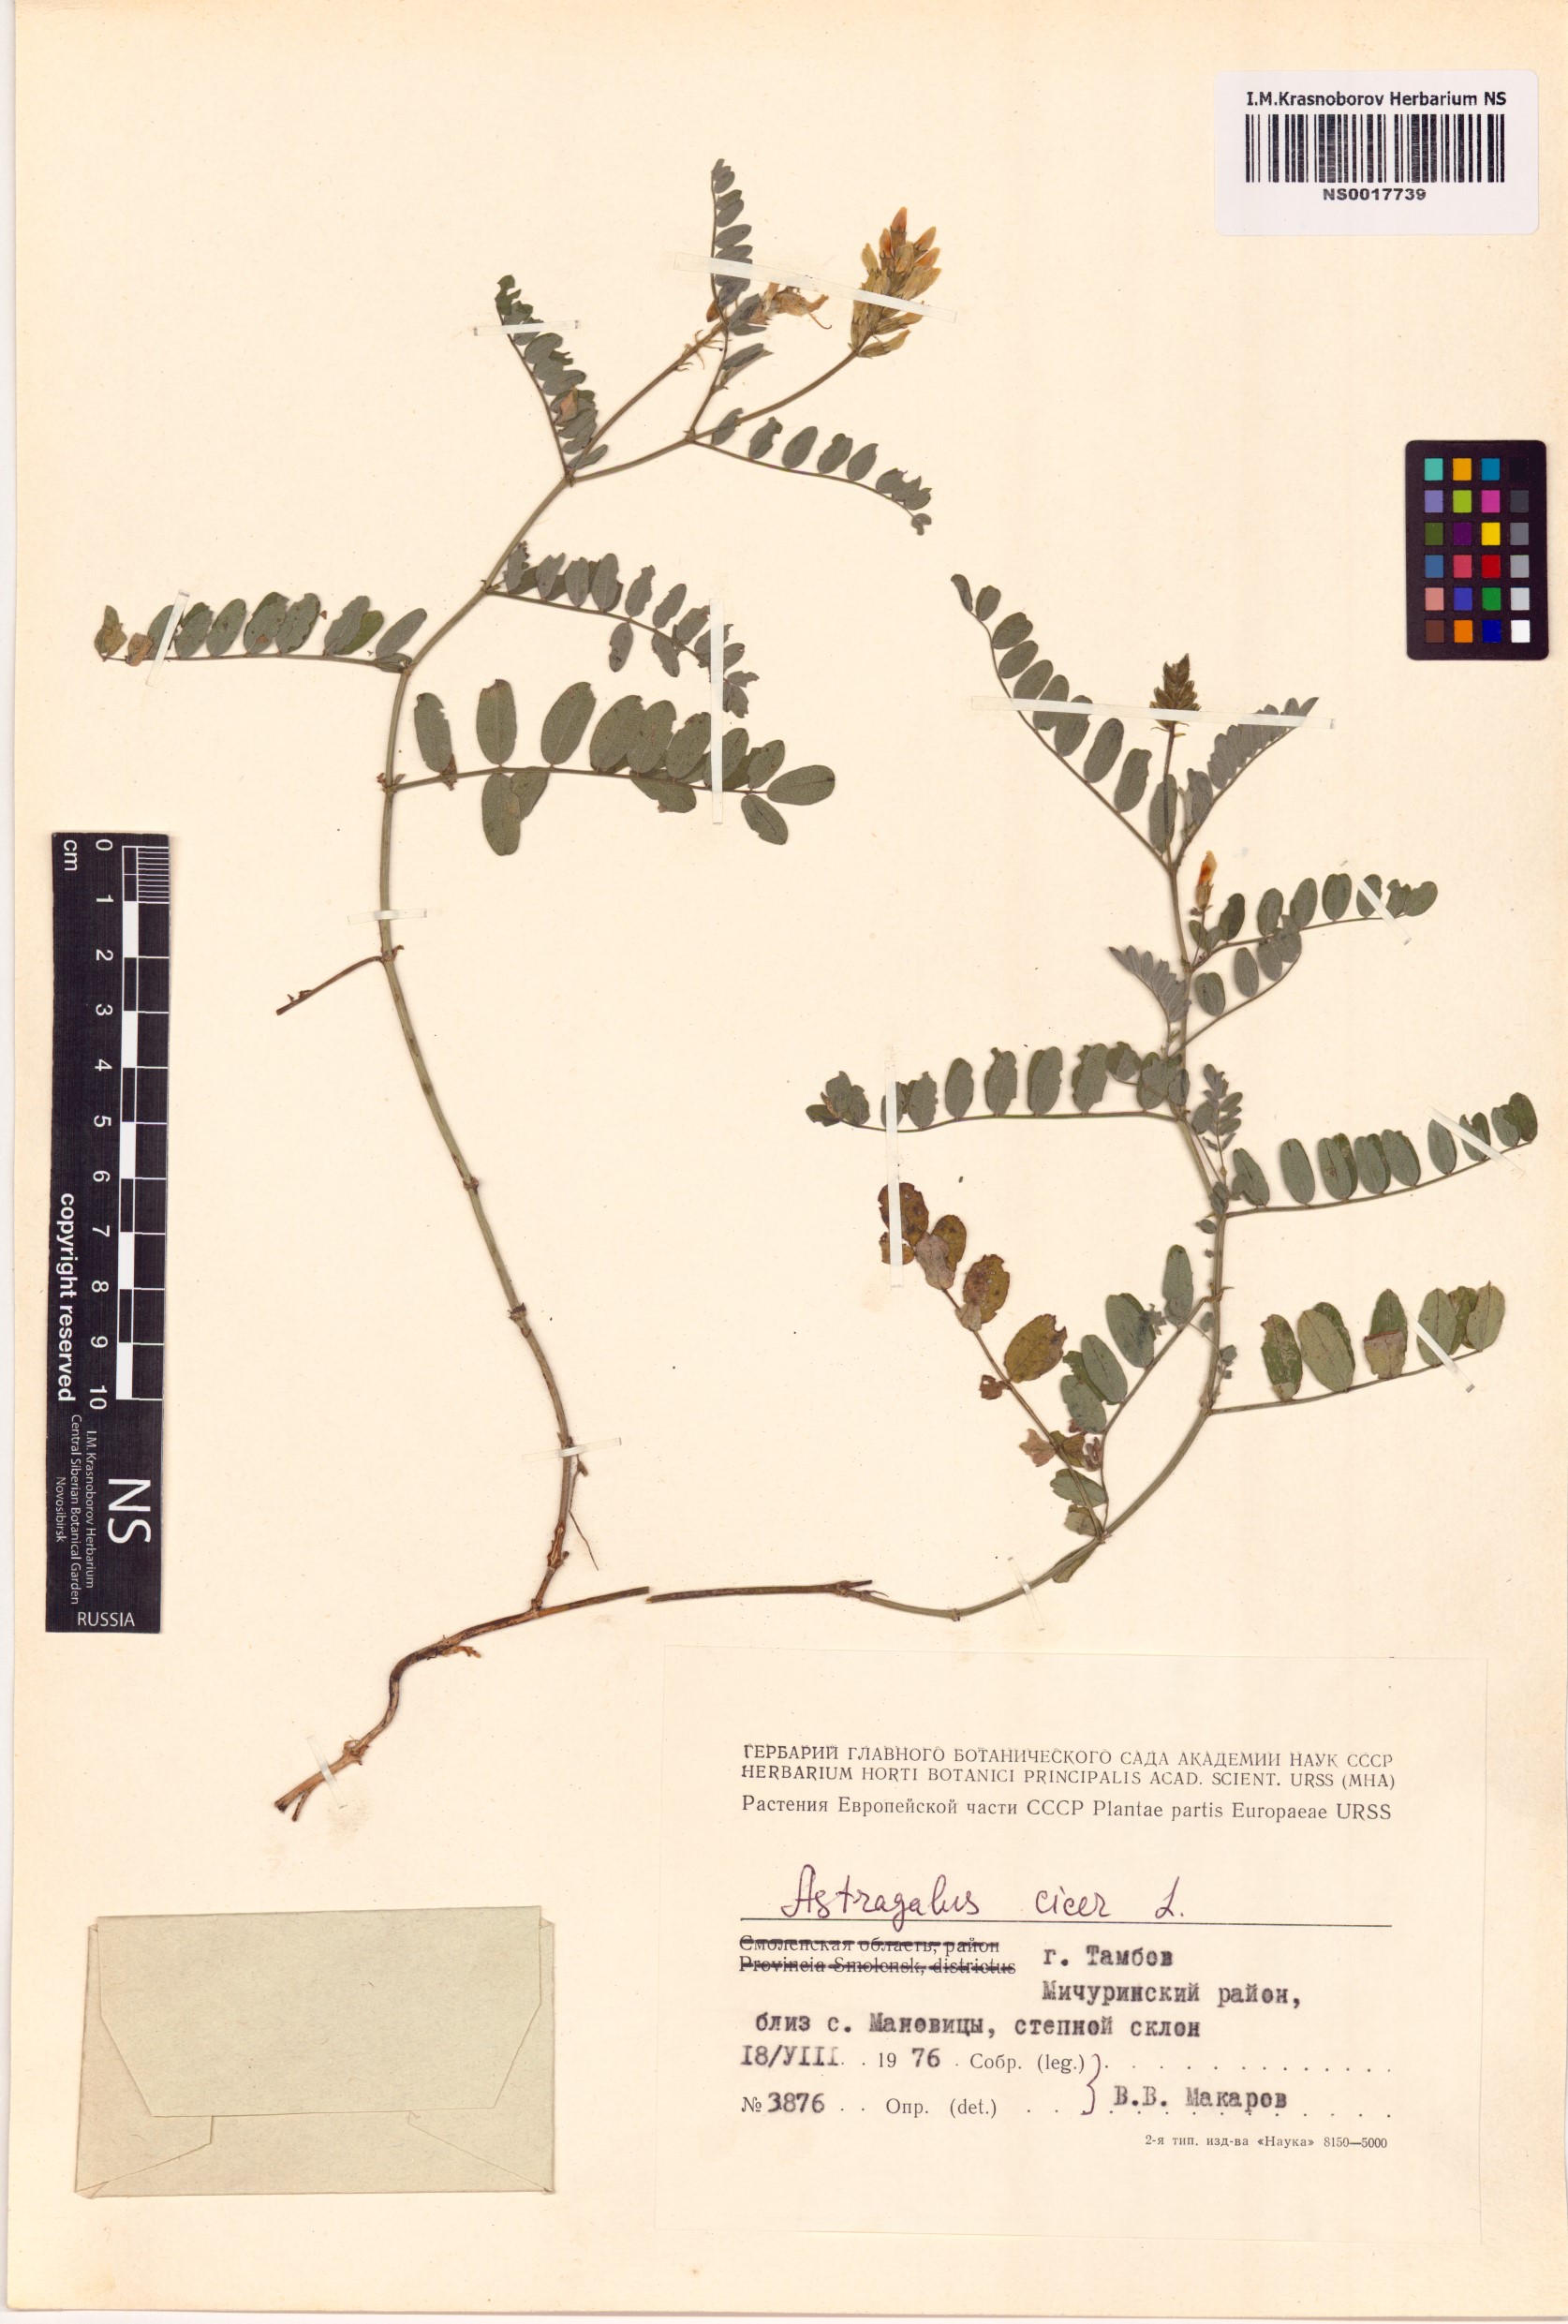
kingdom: Plantae
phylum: Tracheophyta
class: Magnoliopsida
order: Fabales
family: Fabaceae
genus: Astragalus
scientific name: Astragalus cicer
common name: Chick-pea milk-vetch
